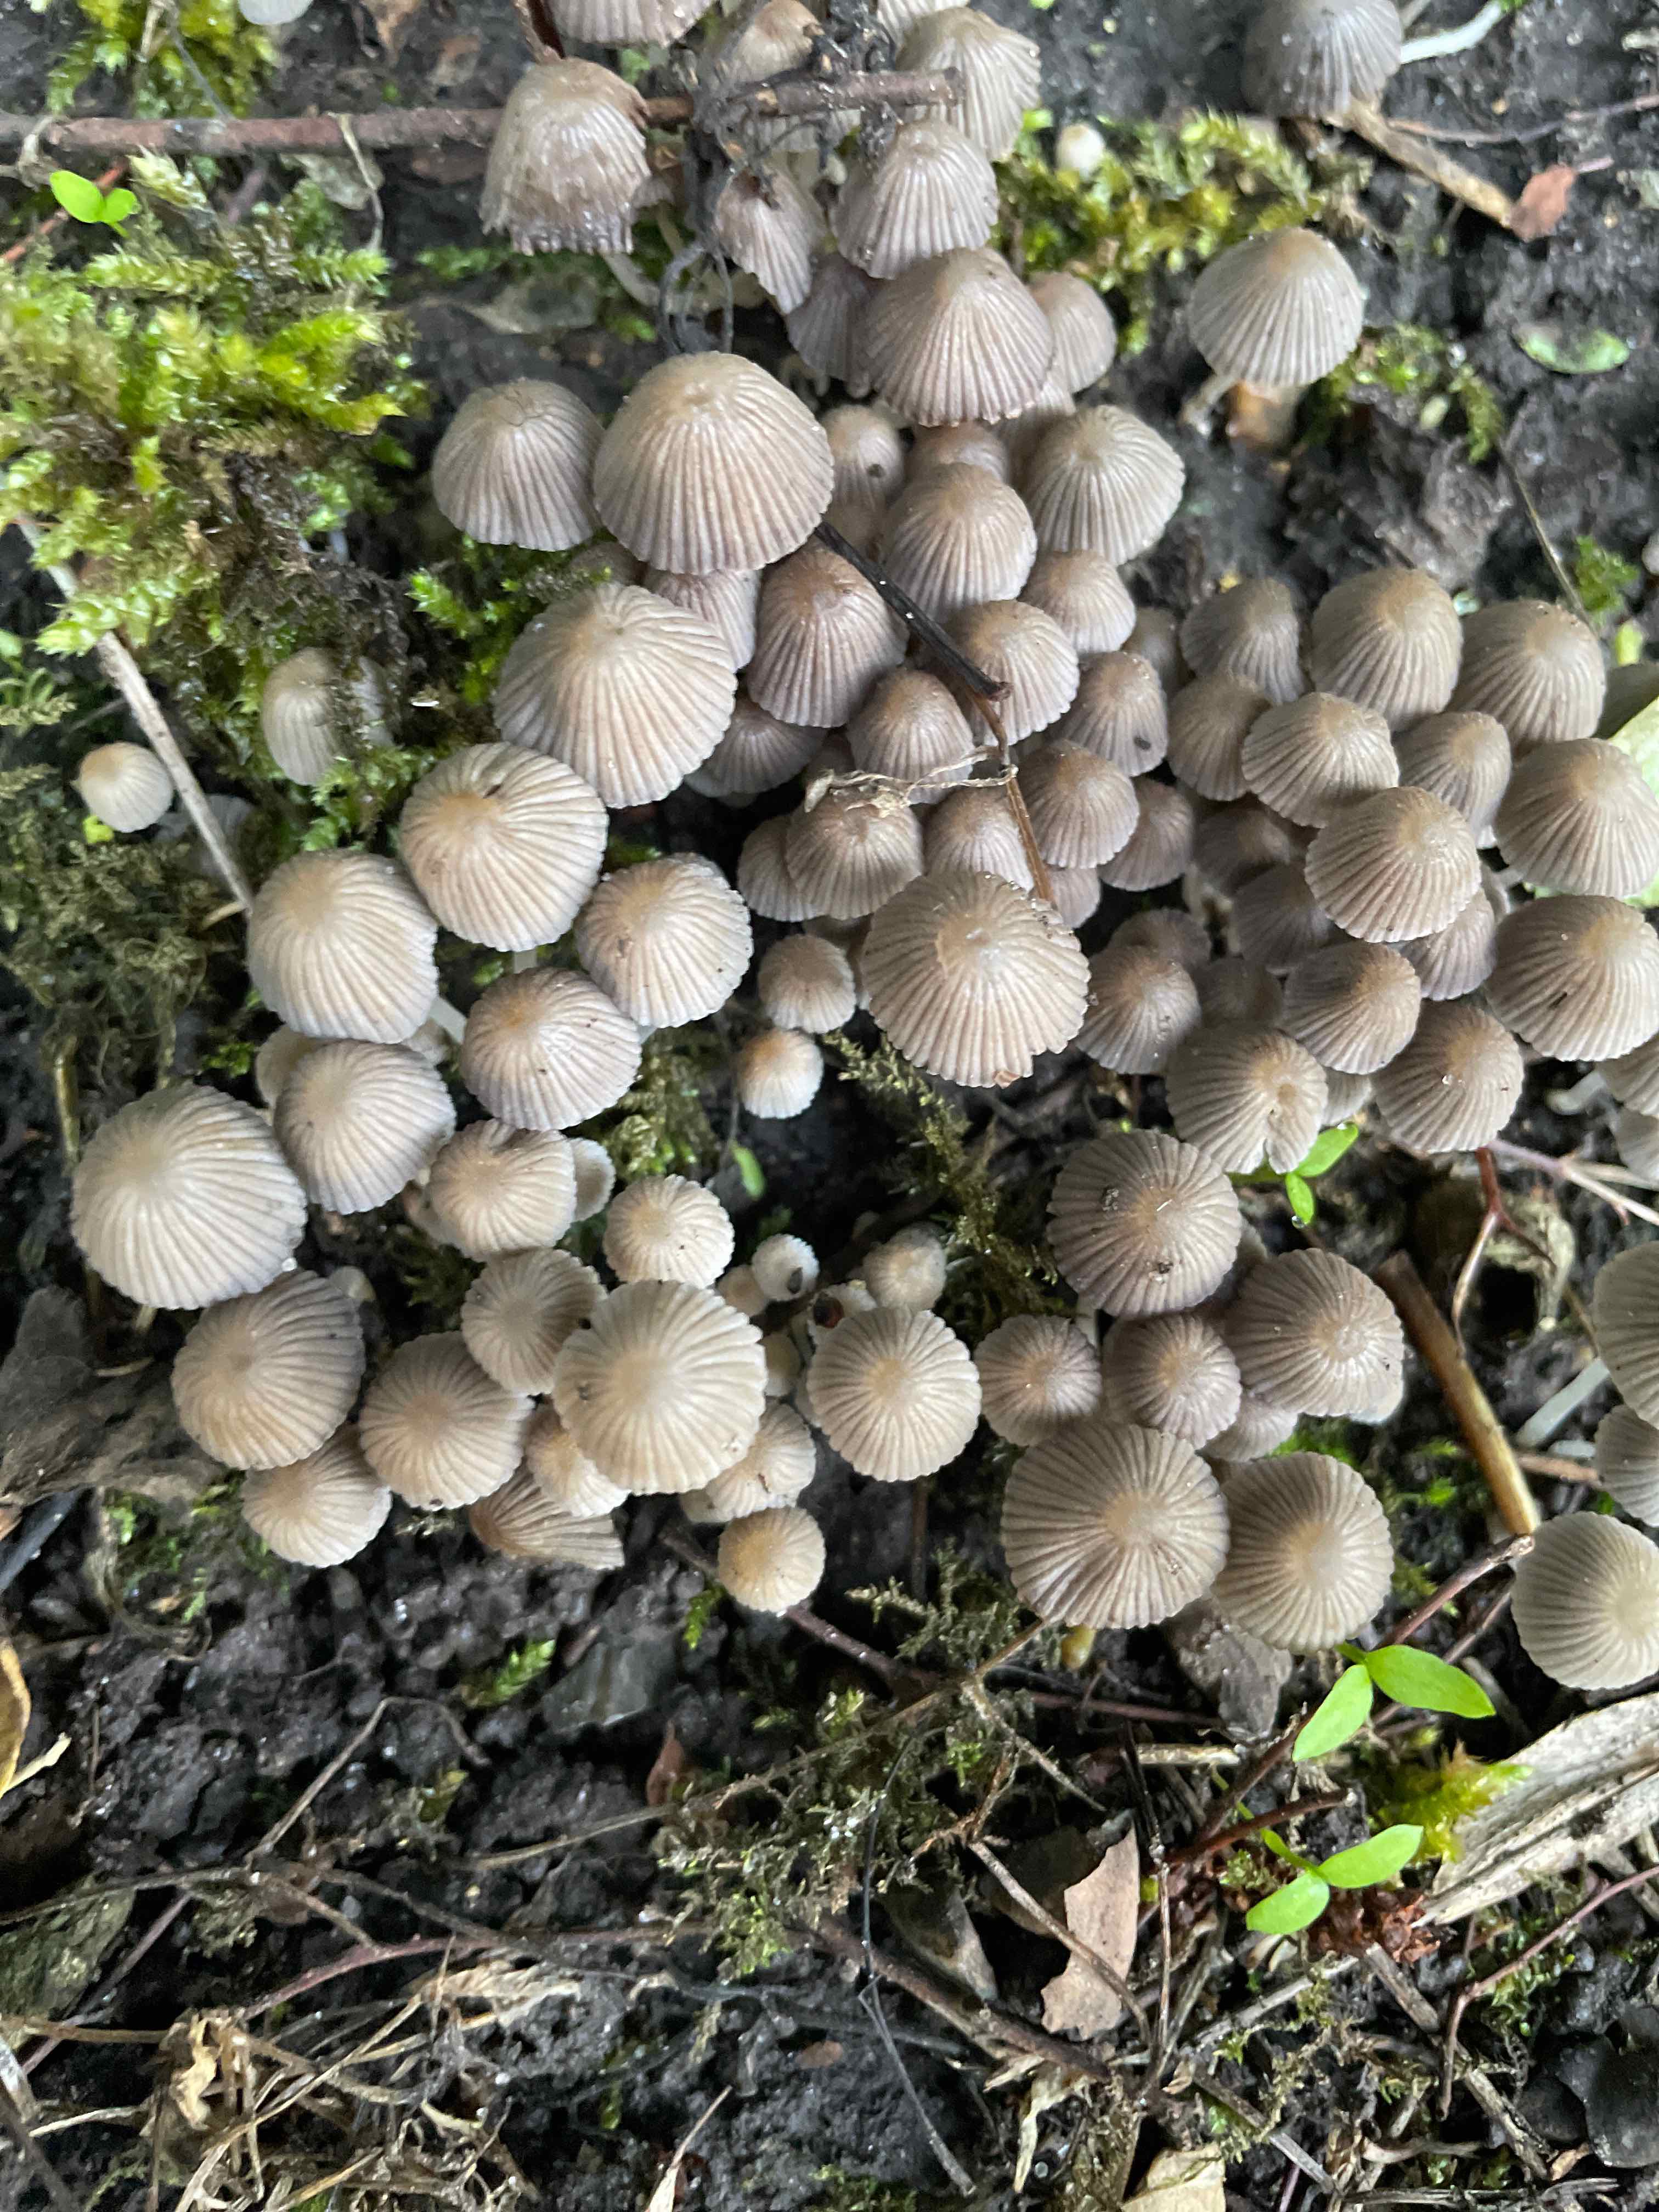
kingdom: Fungi
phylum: Basidiomycota
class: Agaricomycetes
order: Agaricales
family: Psathyrellaceae
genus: Coprinellus
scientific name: Coprinellus disseminatus
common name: bredsået blækhat
